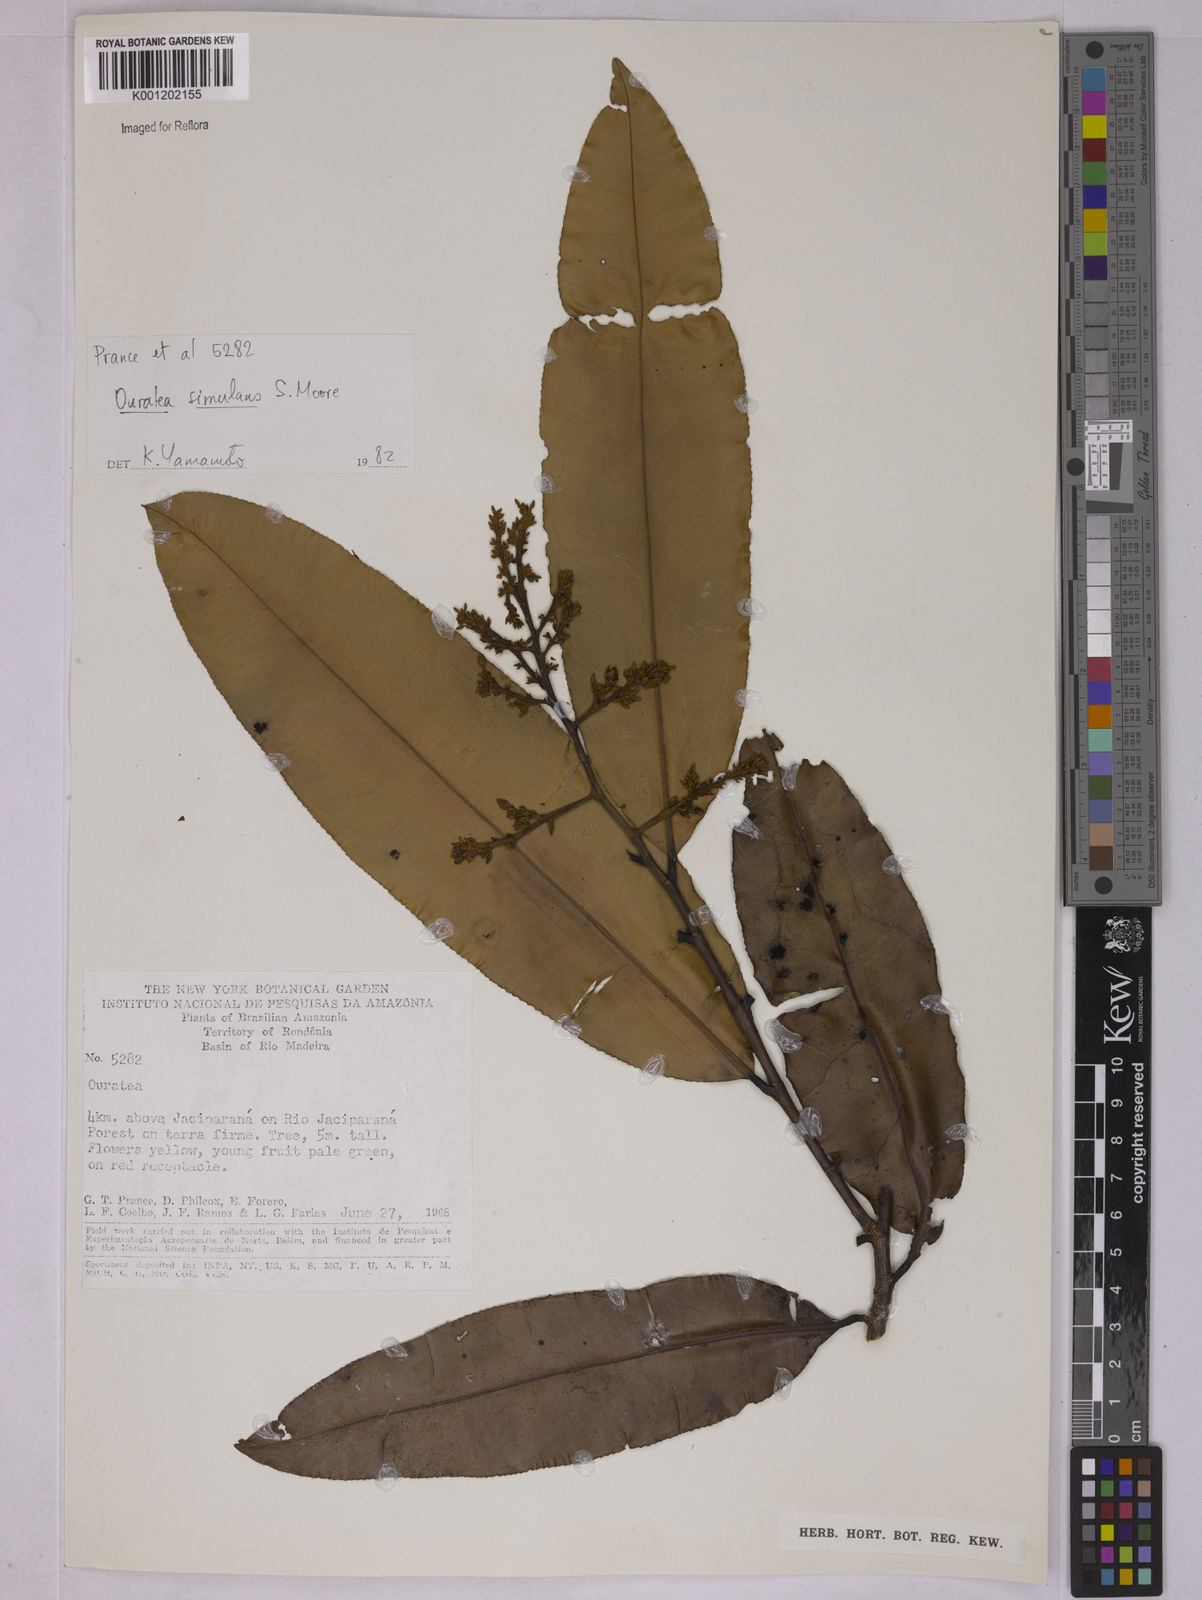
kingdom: Plantae
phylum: Tracheophyta
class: Magnoliopsida
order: Malpighiales
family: Ochnaceae
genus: Ouratea
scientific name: Ouratea simulans
